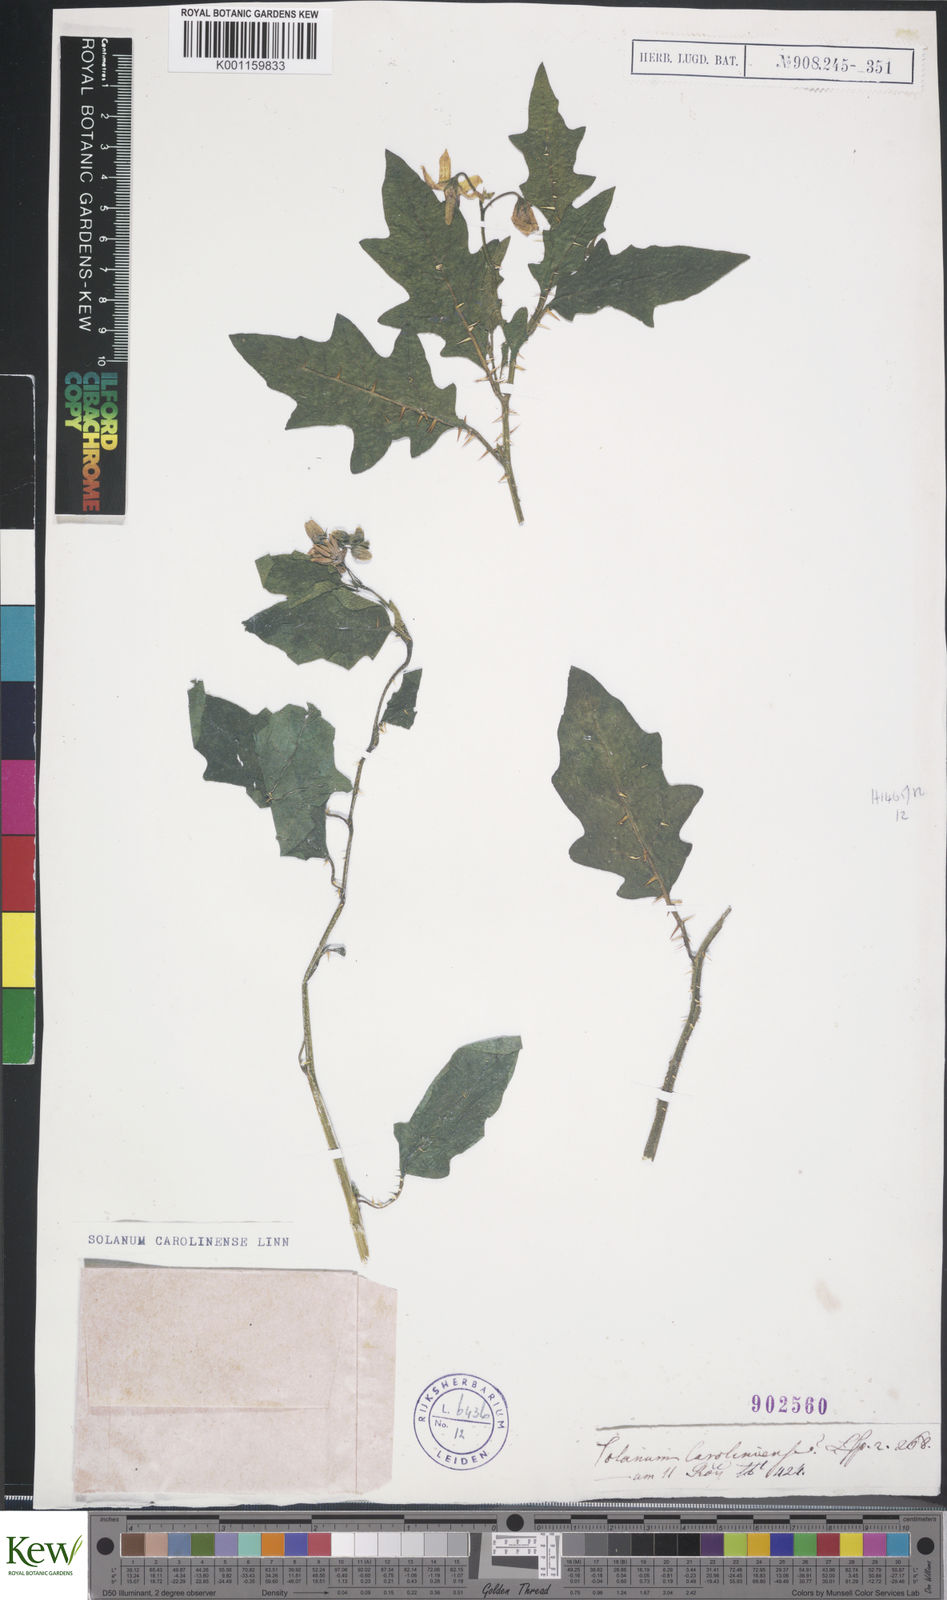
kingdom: Plantae
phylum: Tracheophyta
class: Magnoliopsida
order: Solanales
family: Solanaceae
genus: Solanum
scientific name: Solanum carolinense
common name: Horse-nettle
